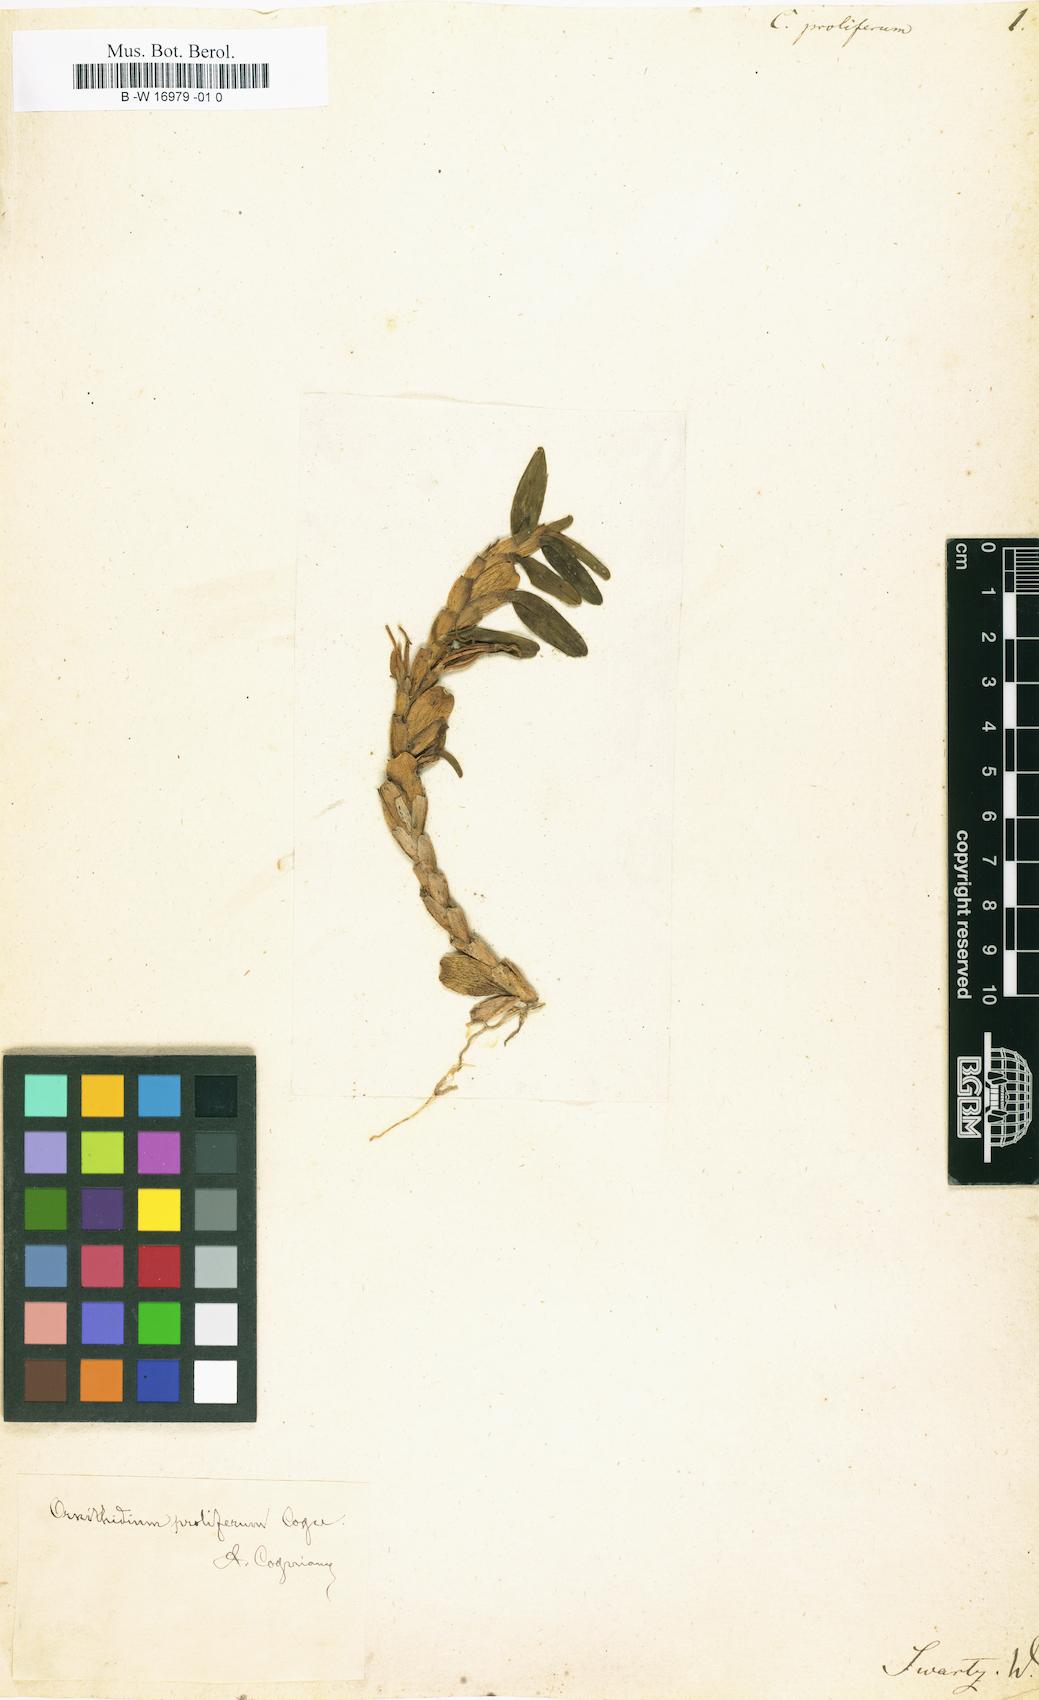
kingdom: Plantae
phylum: Tracheophyta
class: Liliopsida
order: Asparagales
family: Orchidaceae
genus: Maxillaria
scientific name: Maxillaria swartziana
